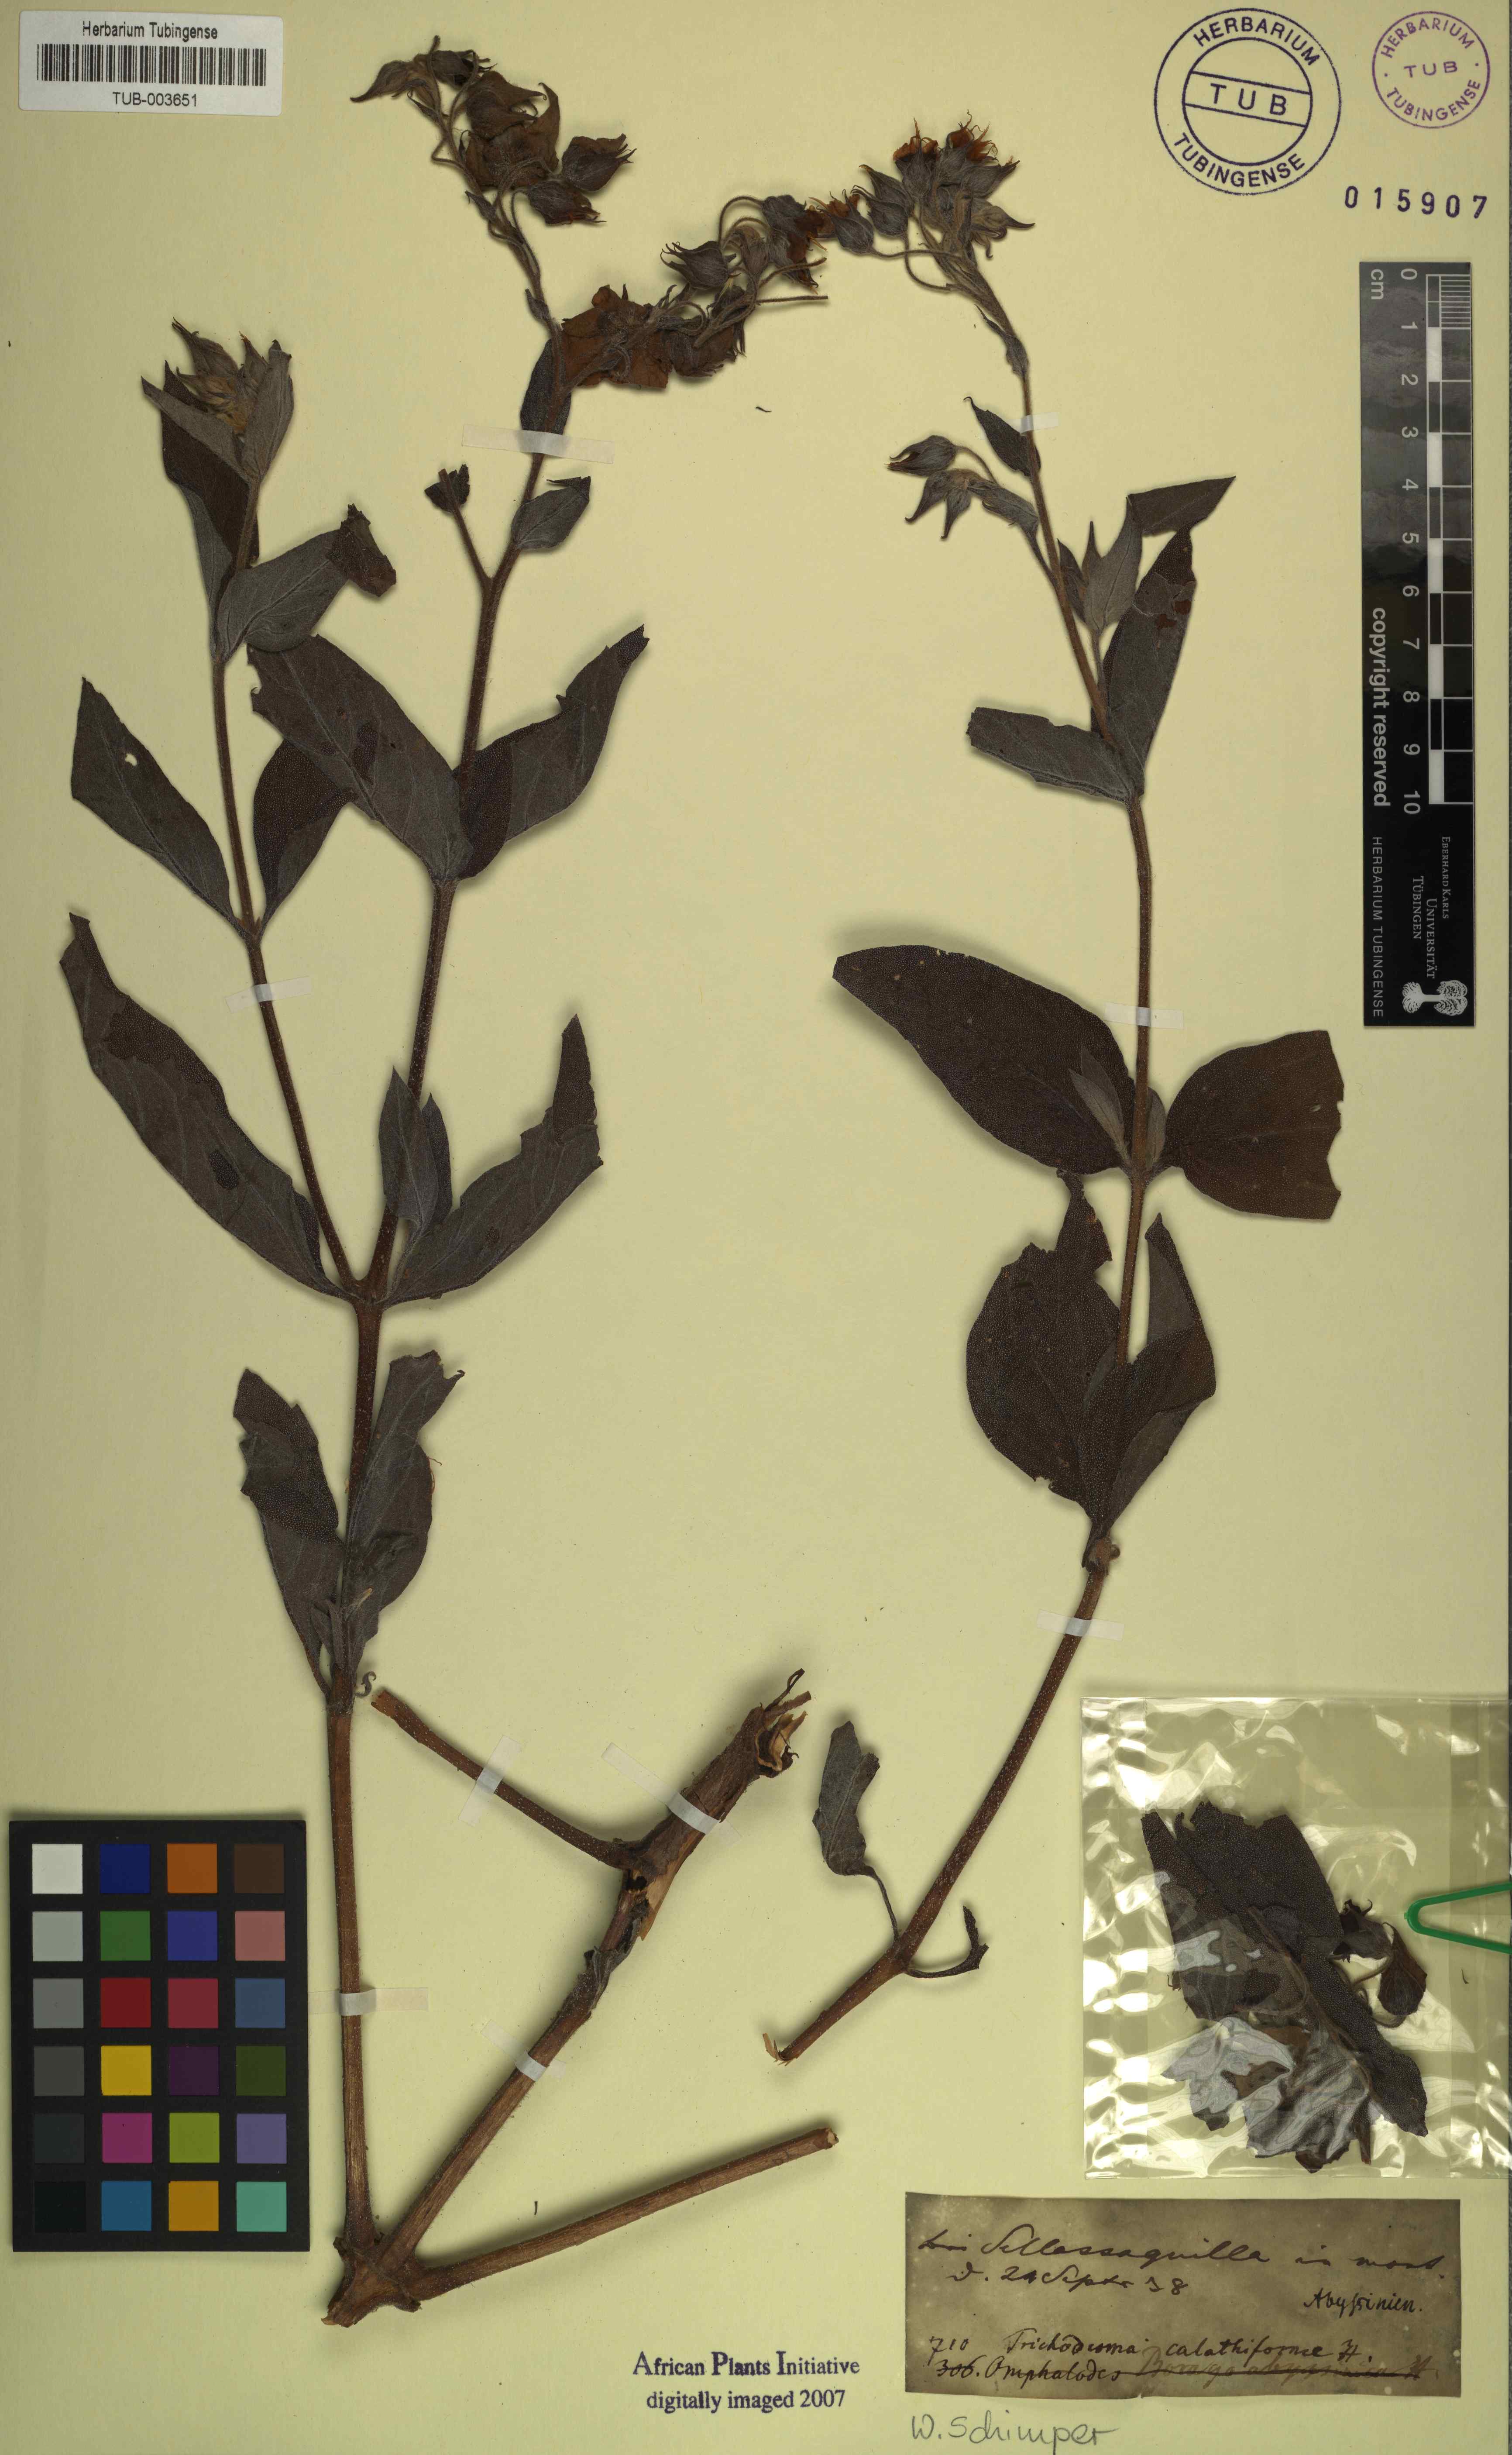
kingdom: Plantae
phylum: Tracheophyta
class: Magnoliopsida
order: Boraginales
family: Boraginaceae
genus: Trichodesma
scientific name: Trichodesma trichodesmoides
